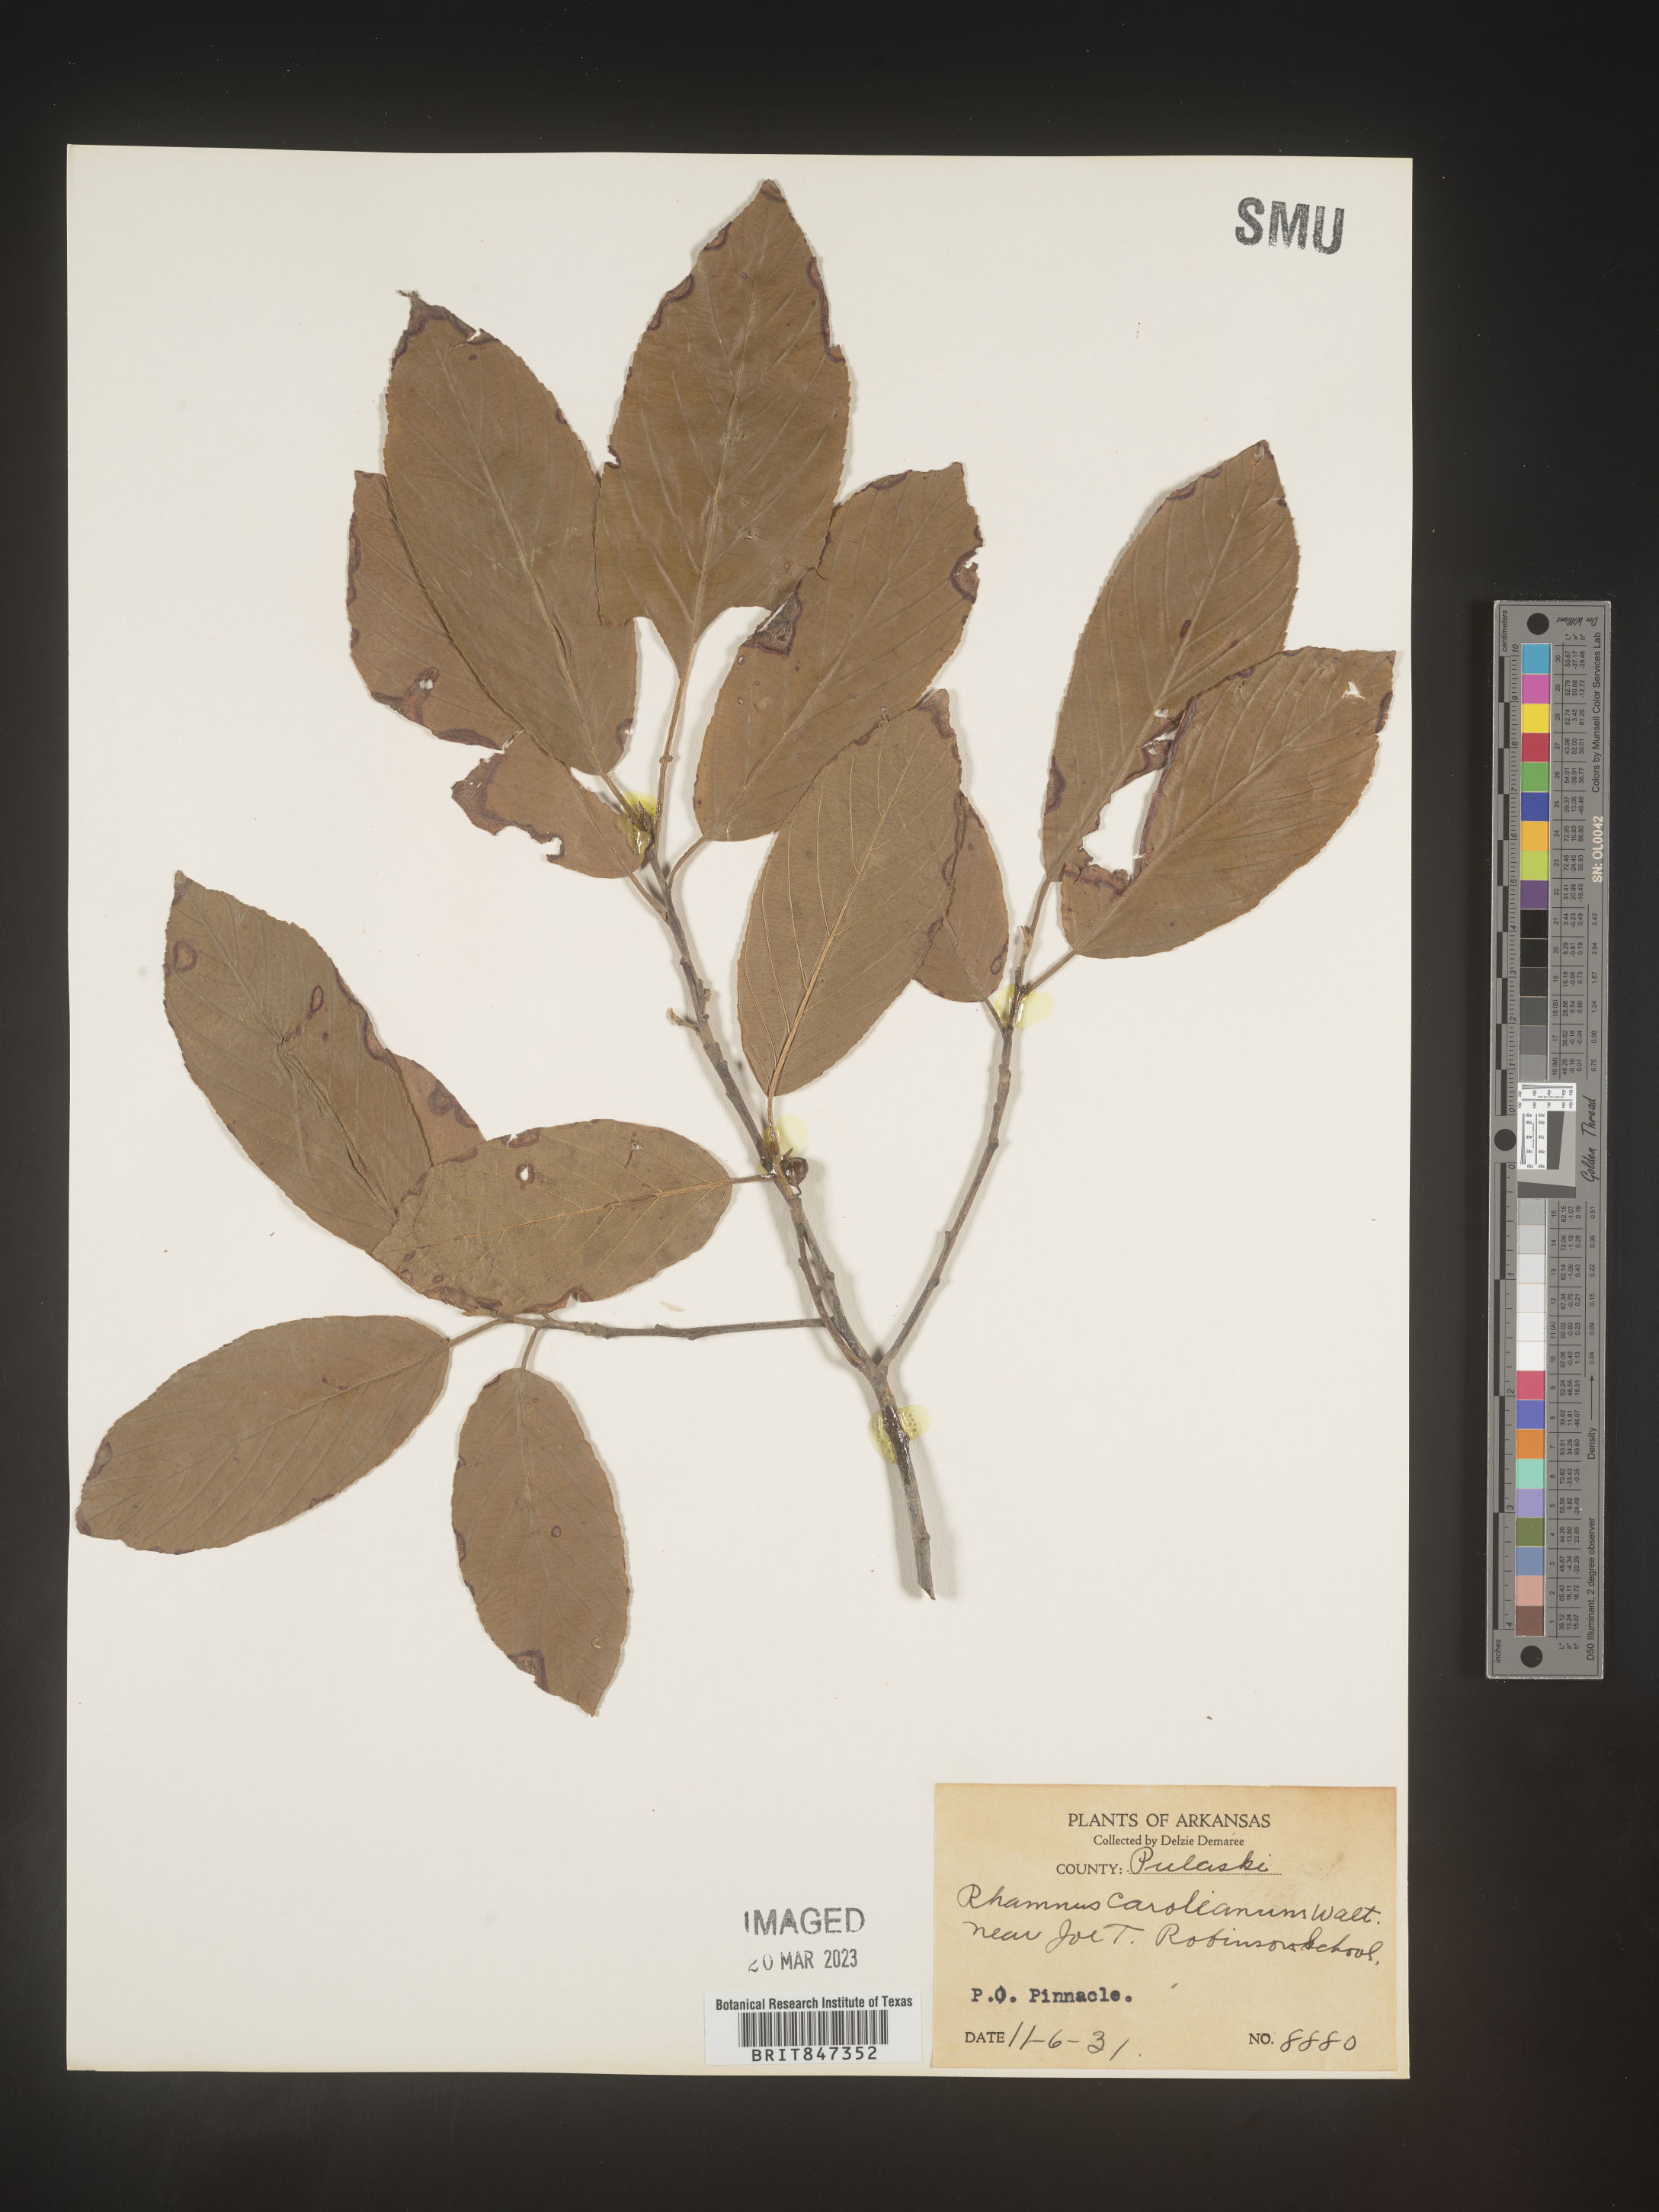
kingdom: Plantae
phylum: Tracheophyta
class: Magnoliopsida
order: Rosales
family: Rhamnaceae
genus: Frangula
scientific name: Frangula caroliniana
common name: Carolina buckthorn
